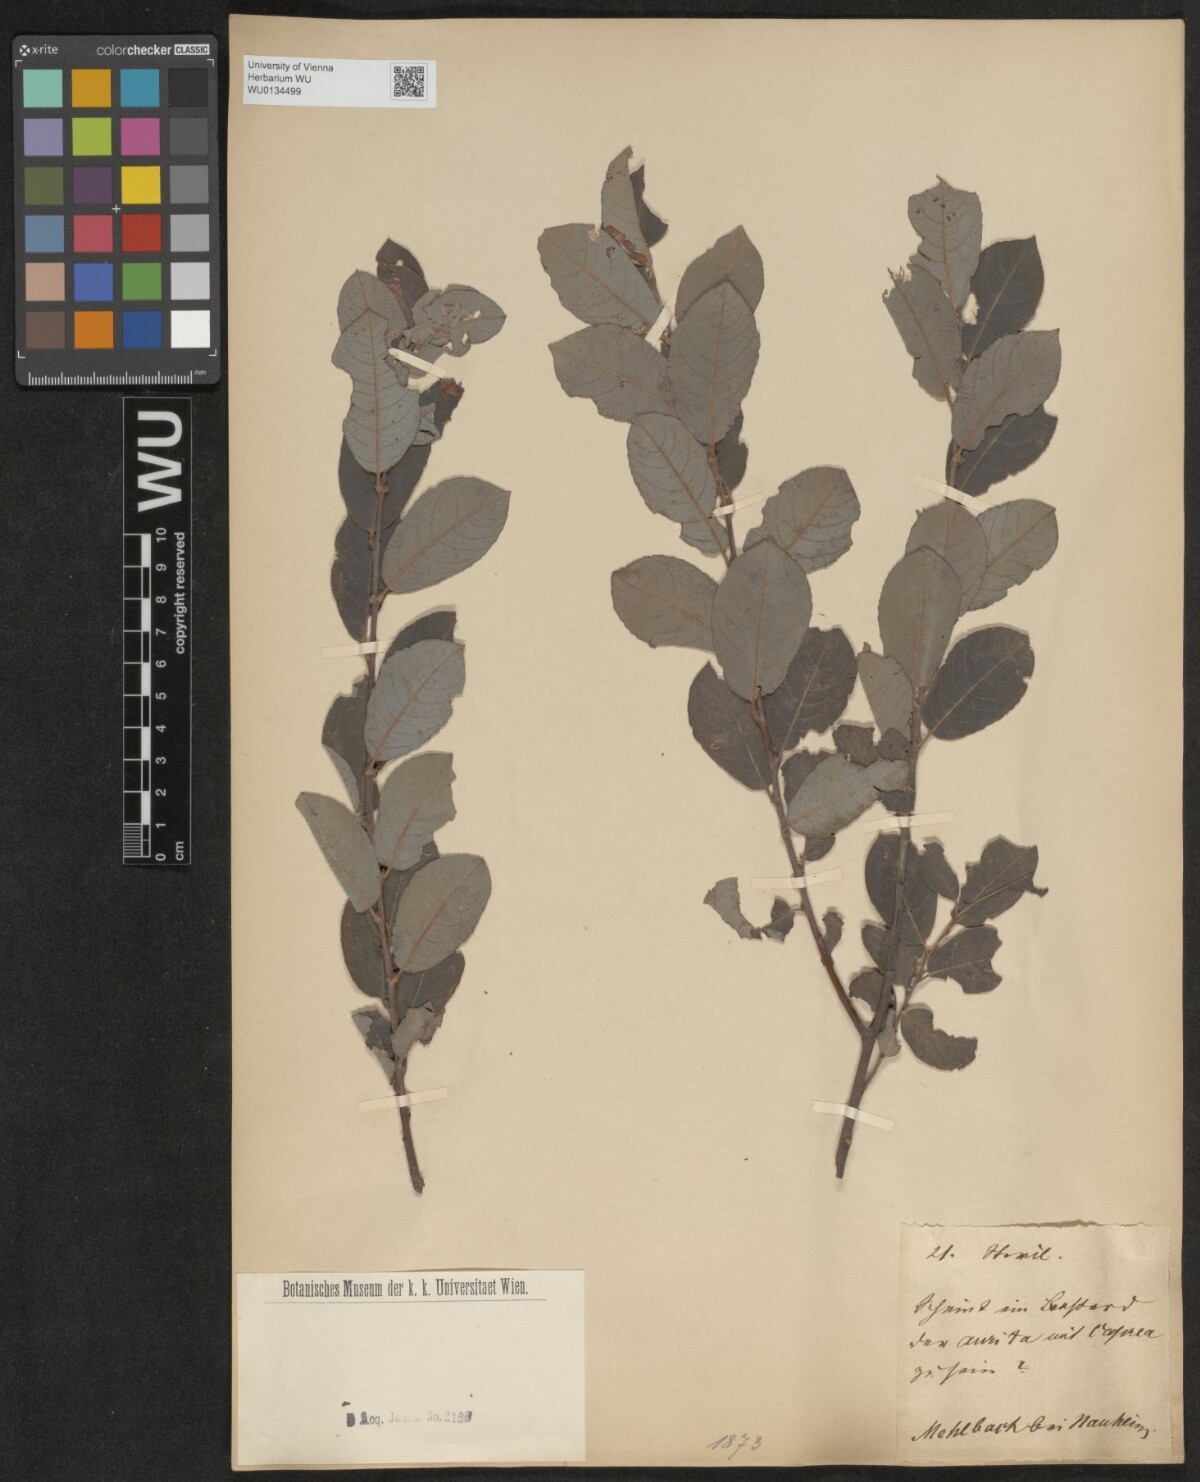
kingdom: Plantae
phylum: Tracheophyta
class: Magnoliopsida
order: Malpighiales
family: Salicaceae
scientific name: Salicaceae
